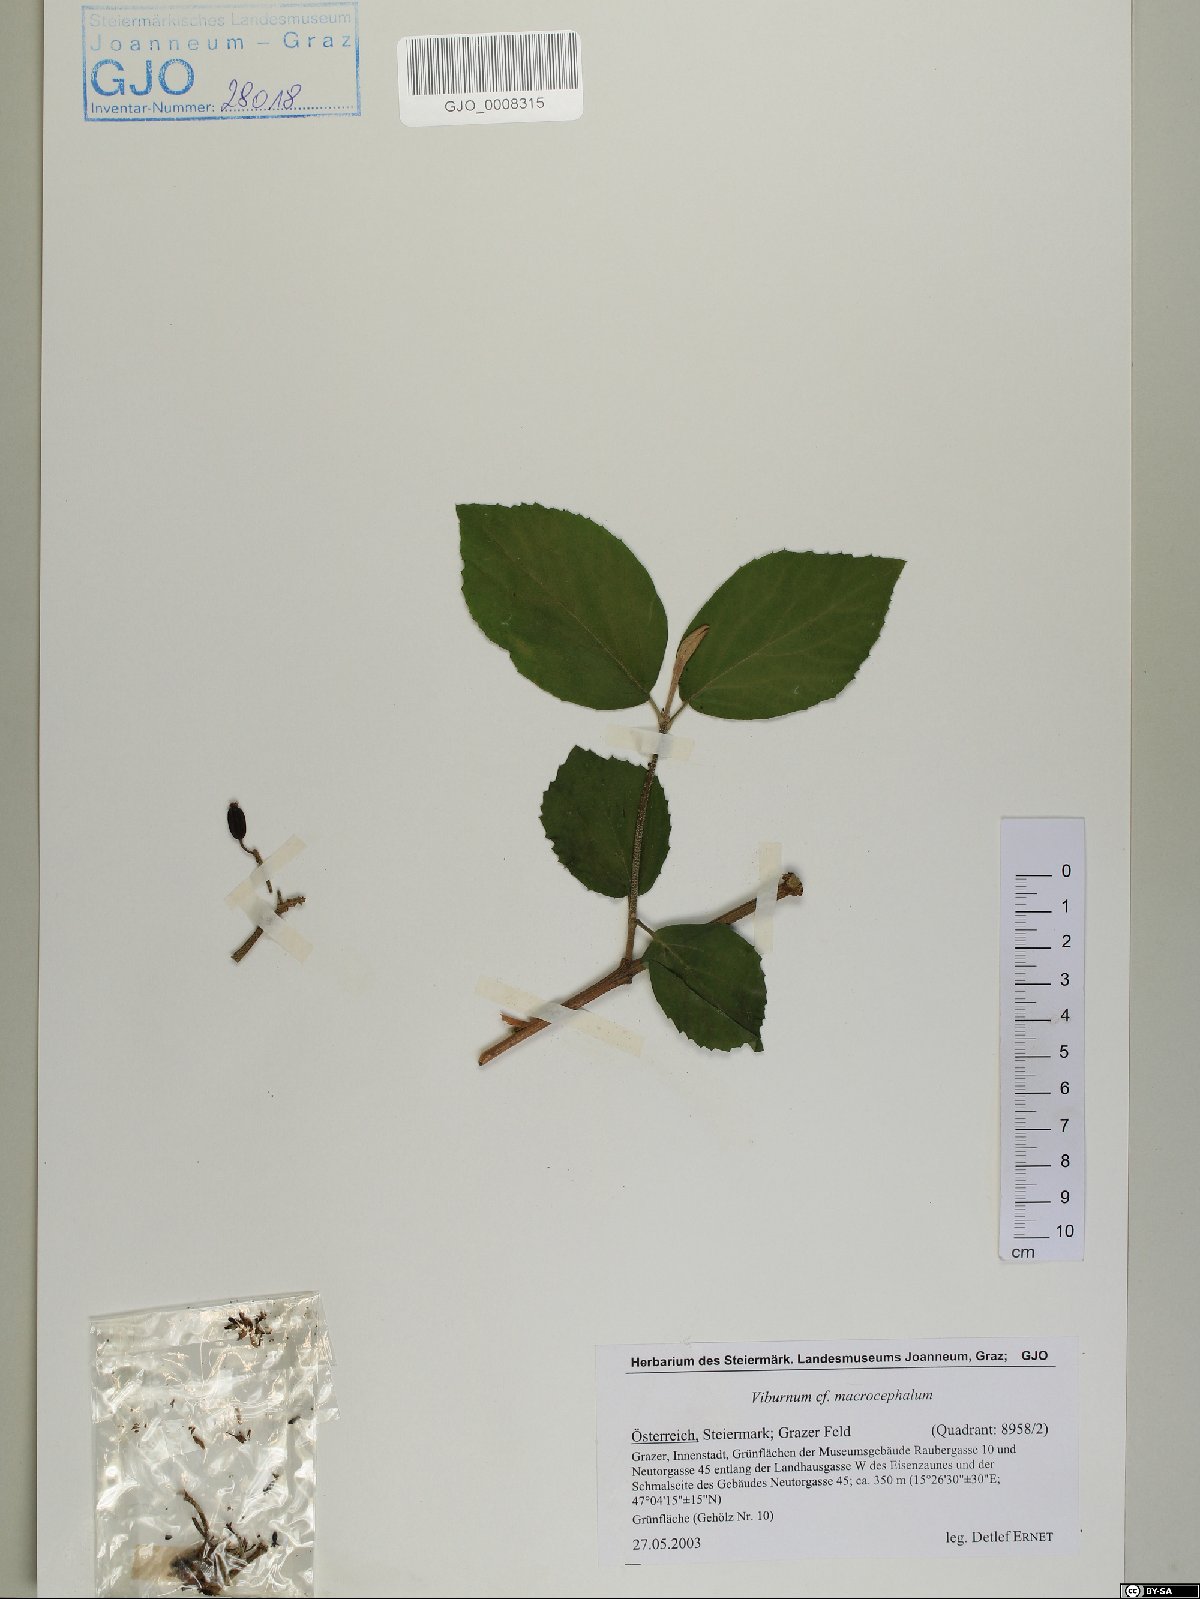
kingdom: Plantae
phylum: Tracheophyta
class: Magnoliopsida
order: Dipsacales
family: Viburnaceae
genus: Viburnum
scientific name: Viburnum macrocephalum
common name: Chinese snowball viburnum
